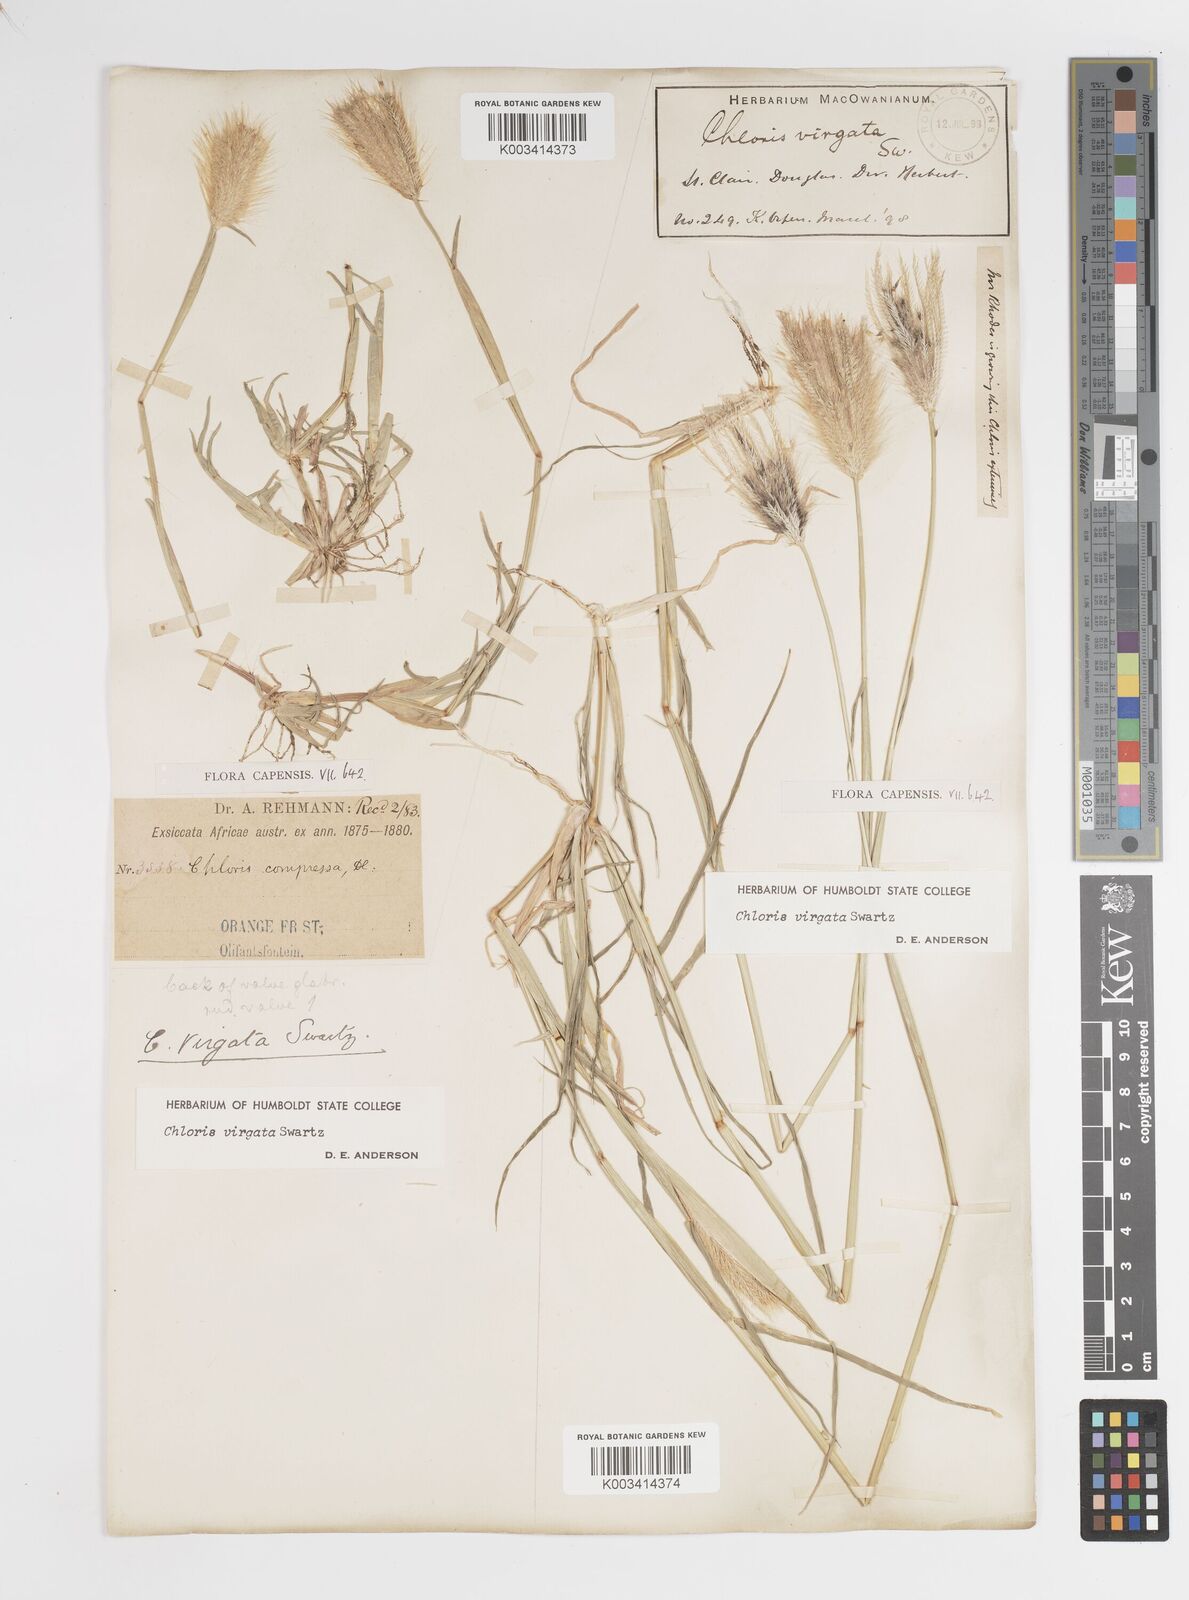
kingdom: Plantae
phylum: Tracheophyta
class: Liliopsida
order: Poales
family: Poaceae
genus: Chloris
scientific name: Chloris virgata
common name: Feathery rhodes-grass
